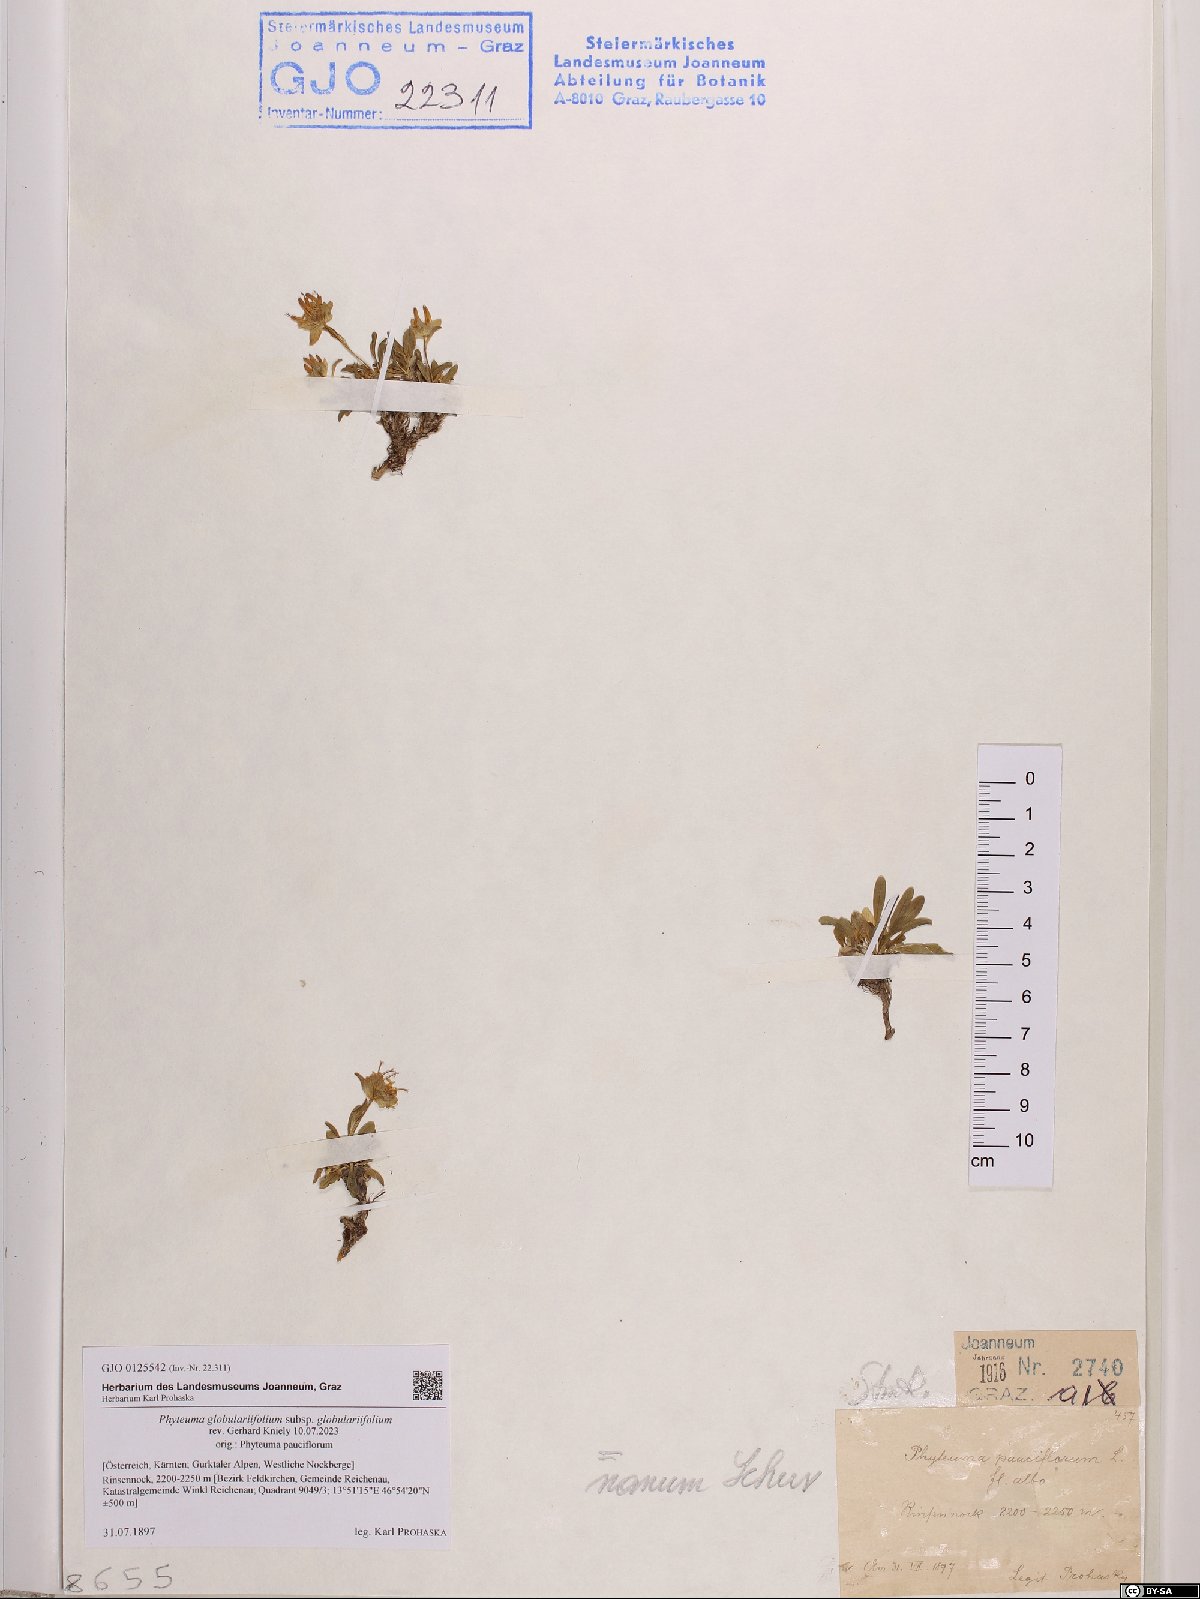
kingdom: Plantae
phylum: Tracheophyta
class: Magnoliopsida
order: Asterales
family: Campanulaceae
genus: Phyteuma
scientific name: Phyteuma globulariifolium
